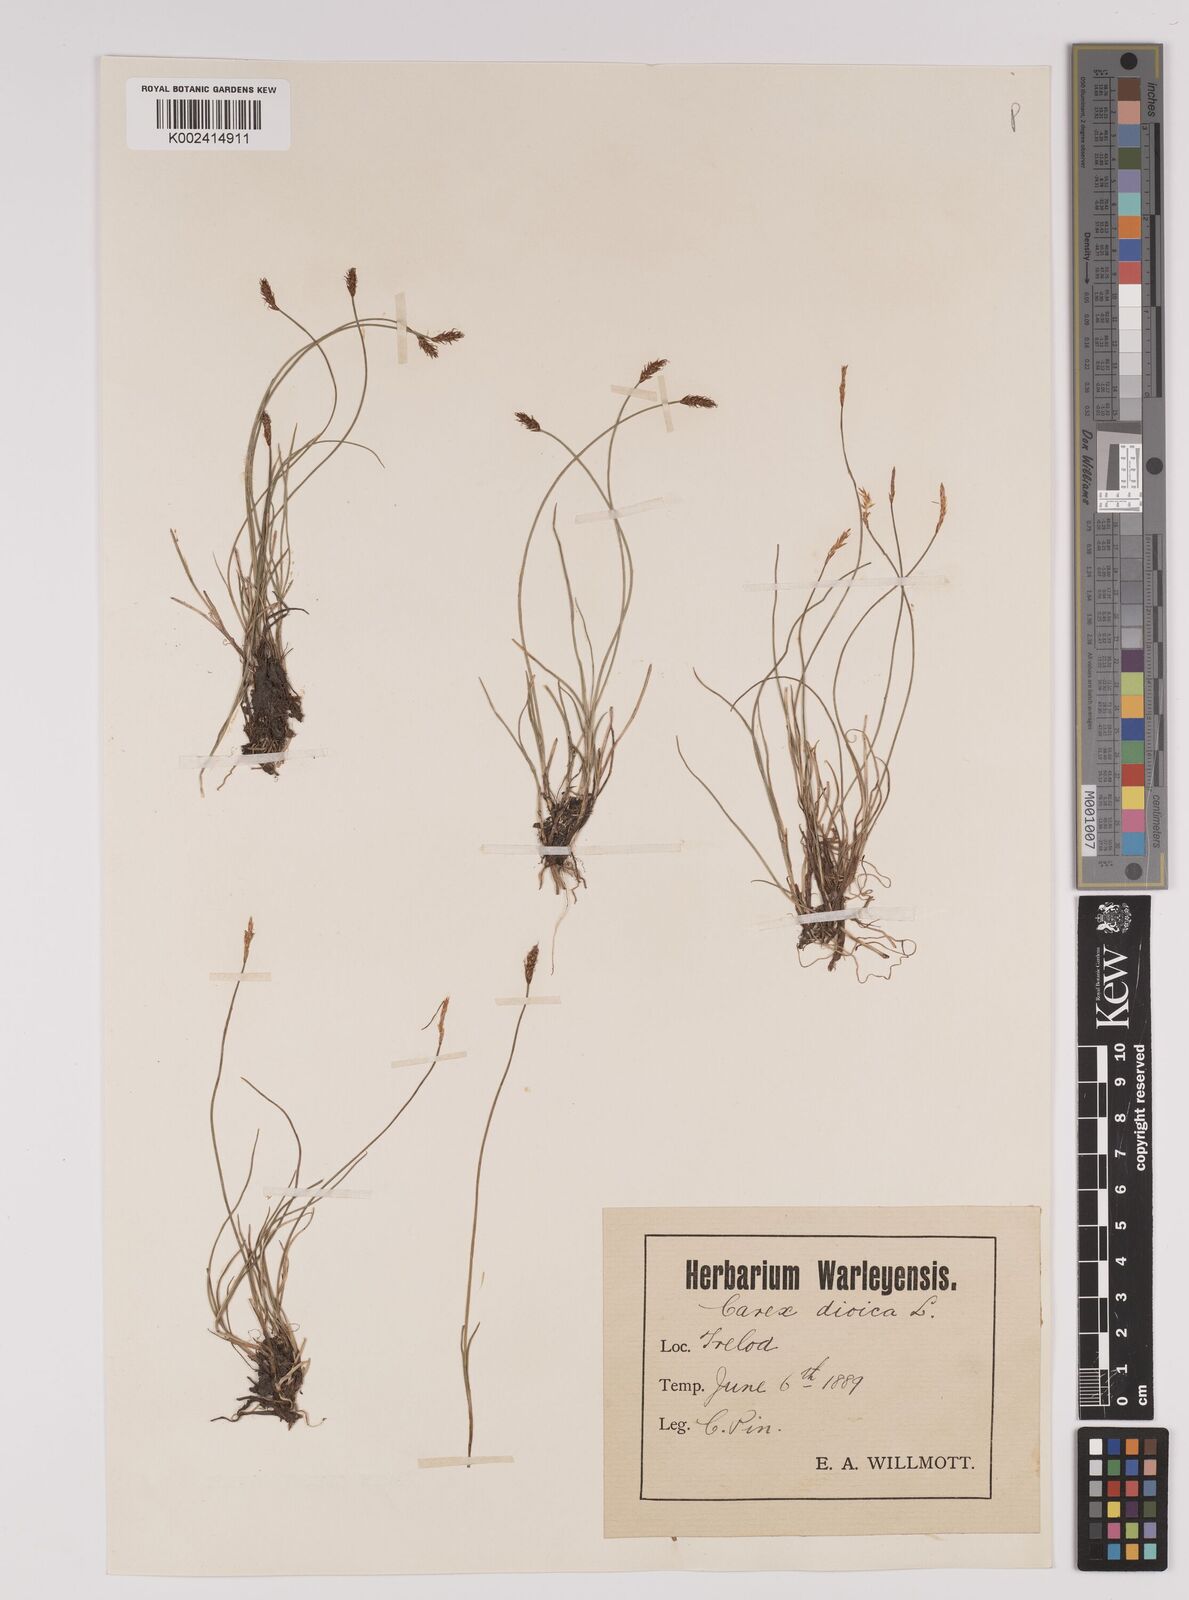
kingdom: Plantae
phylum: Tracheophyta
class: Liliopsida
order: Poales
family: Cyperaceae
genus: Carex
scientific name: Carex dioica
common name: Dioecious sedge
